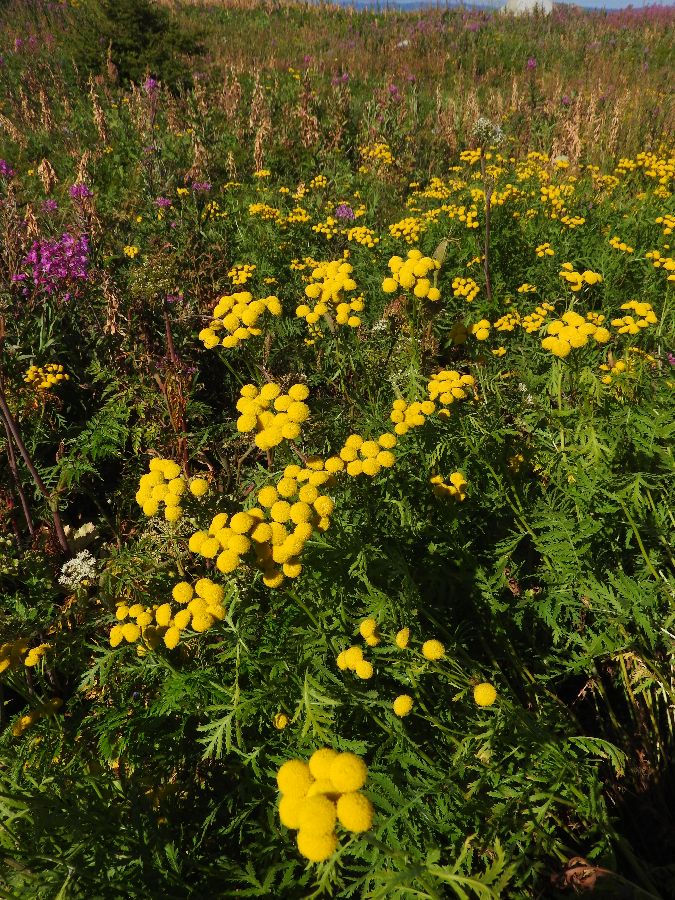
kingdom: Plantae
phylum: Tracheophyta
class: Magnoliopsida
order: Asterales
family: Asteraceae
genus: Tanacetum
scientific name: Tanacetum vulgare
